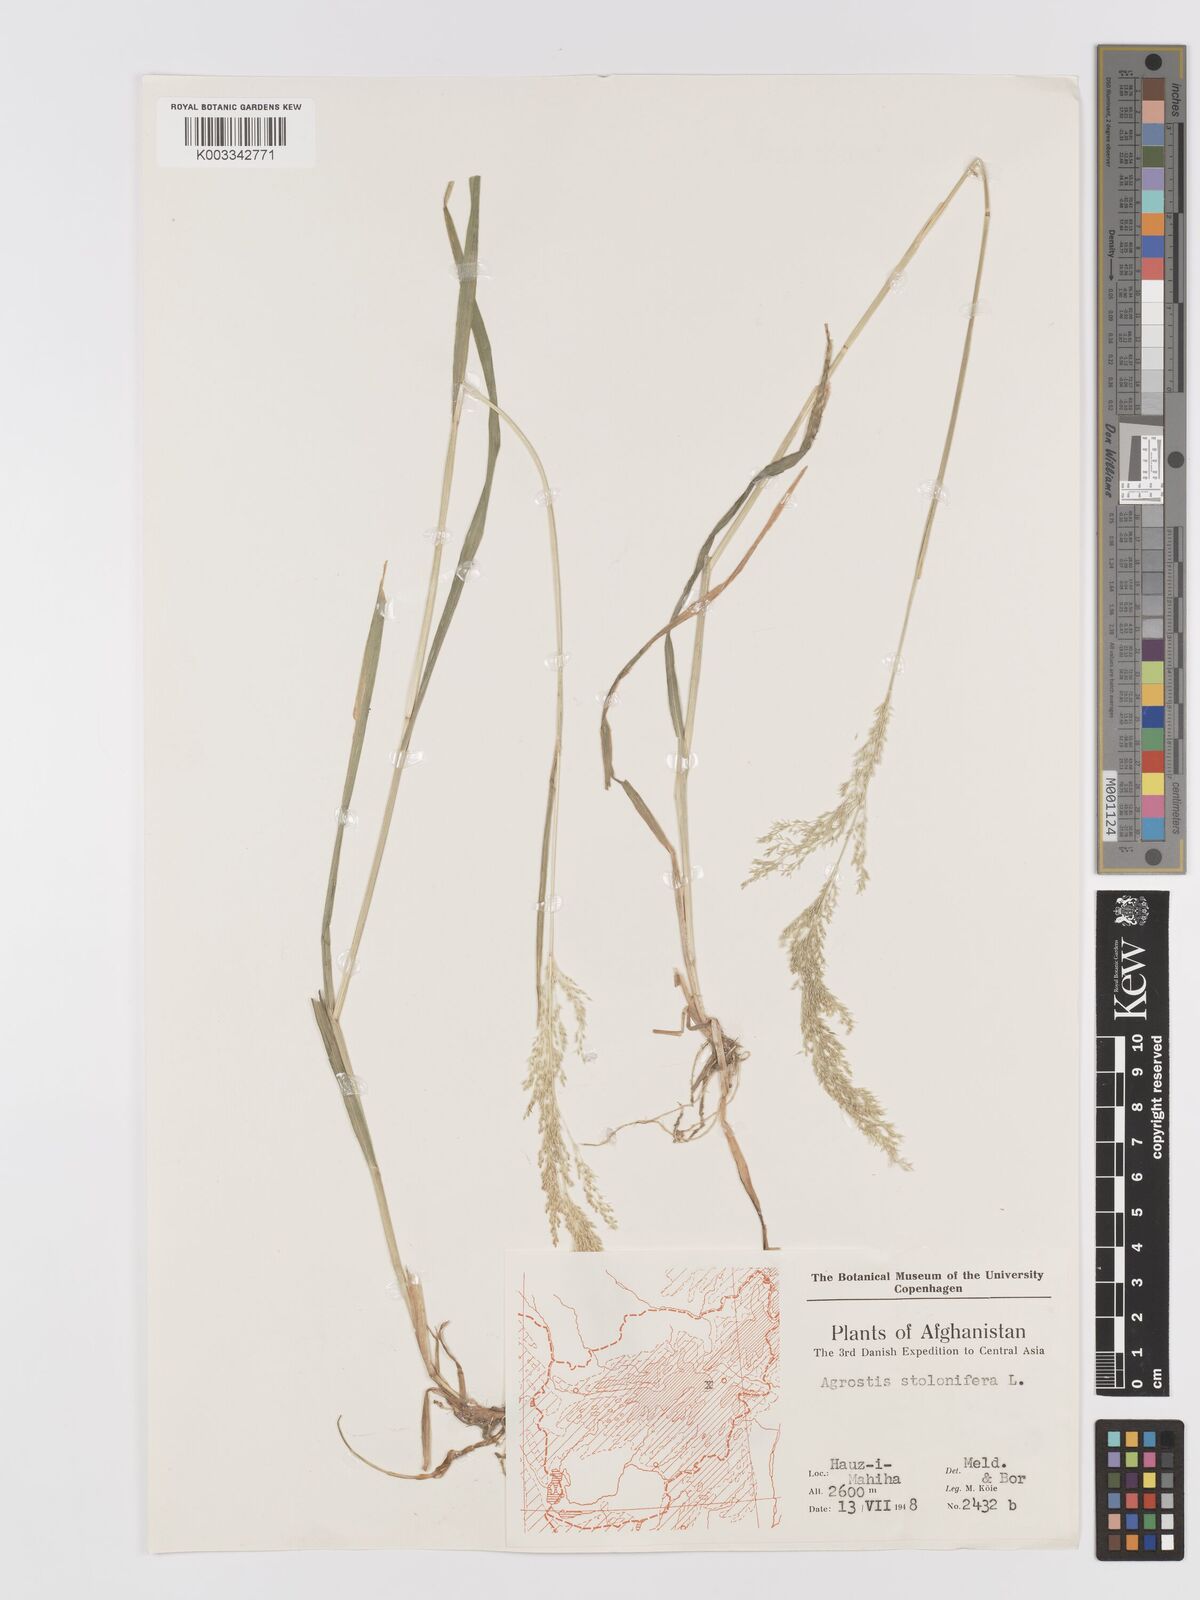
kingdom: Plantae
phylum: Tracheophyta
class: Liliopsida
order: Poales
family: Poaceae
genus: Agrostis
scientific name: Agrostis stolonifera
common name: Creeping bentgrass
